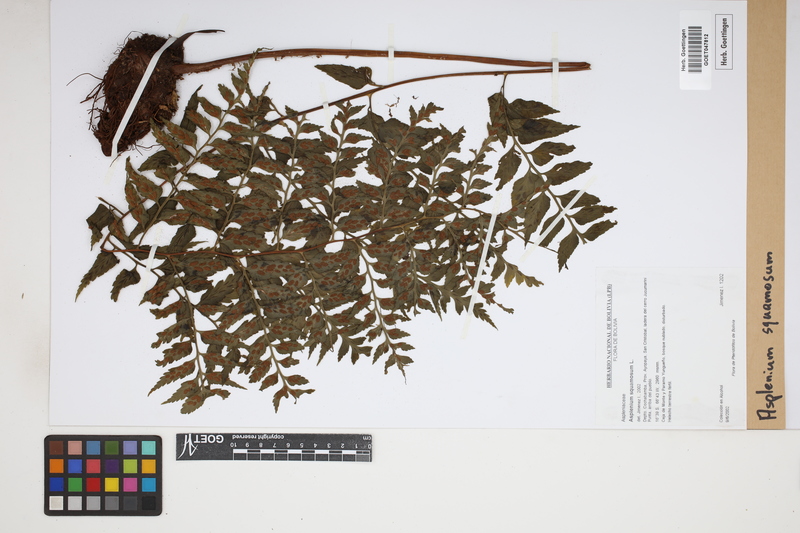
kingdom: Plantae
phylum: Tracheophyta
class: Polypodiopsida
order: Polypodiales
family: Aspleniaceae
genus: Asplenium
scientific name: Asplenium squamosum
